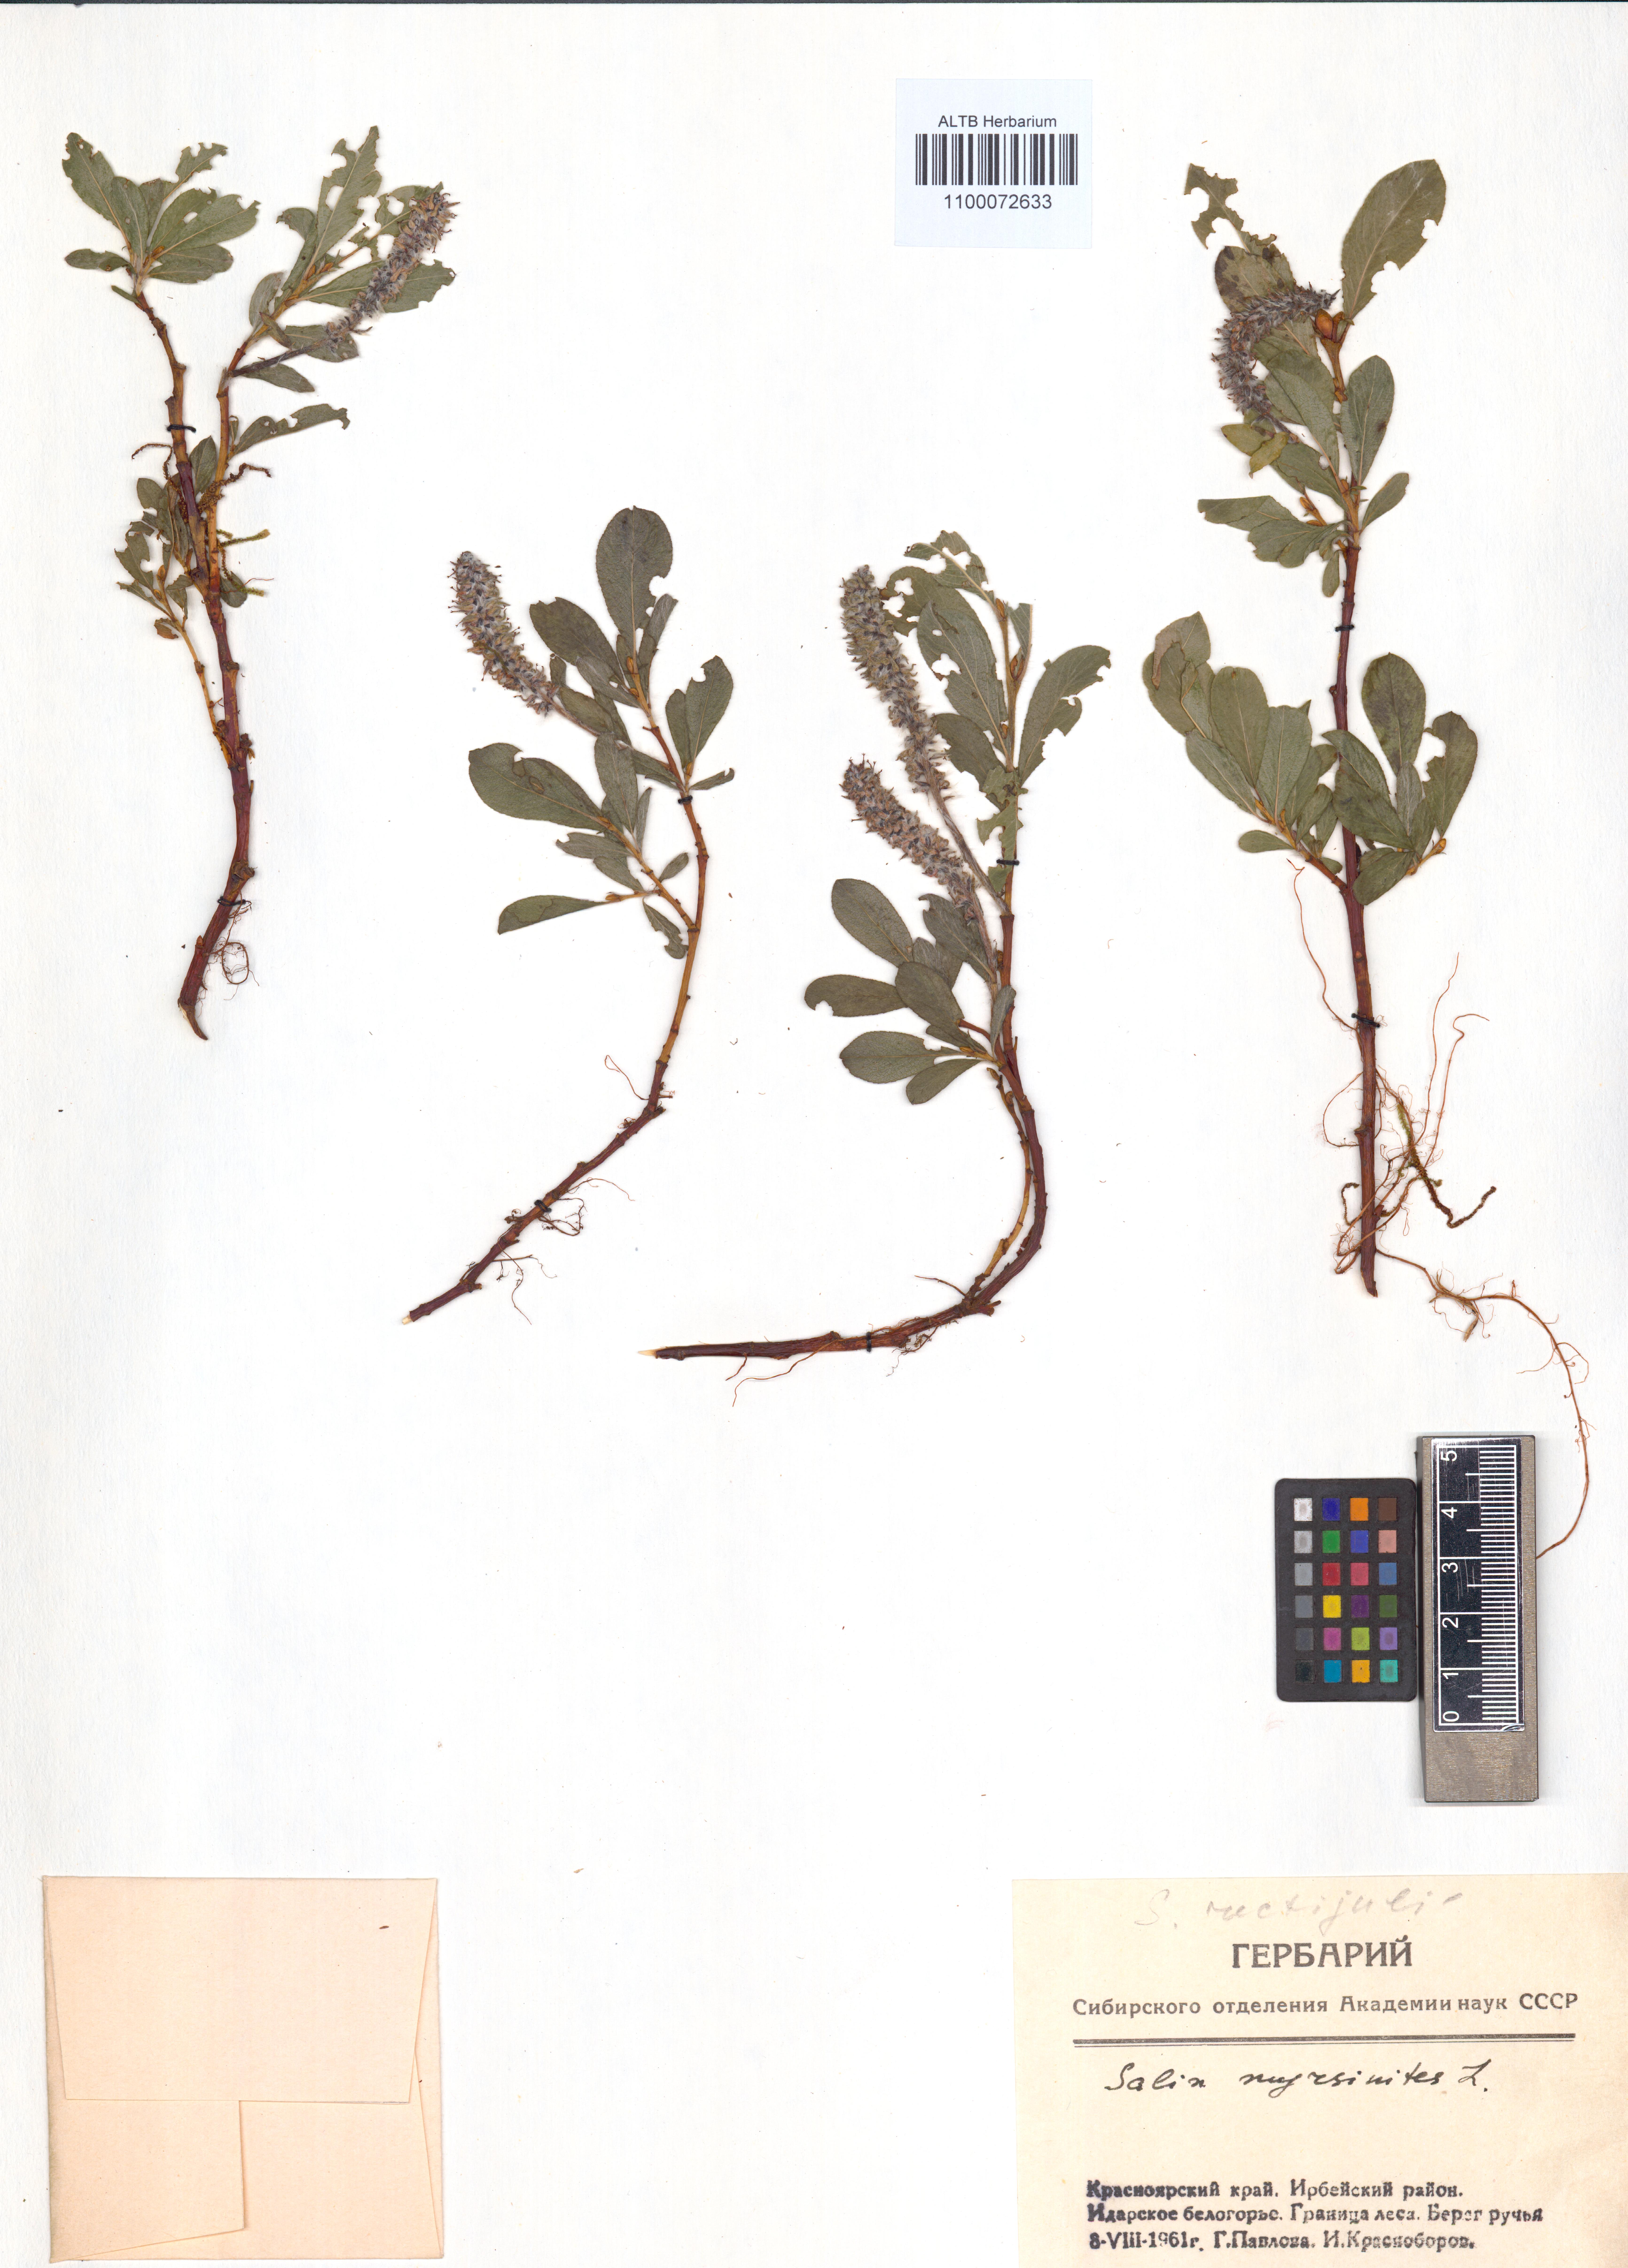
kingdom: Plantae
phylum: Tracheophyta
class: Magnoliopsida
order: Malpighiales
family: Salicaceae
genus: Salix
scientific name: Salix myrsinites
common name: Myrtle willow
